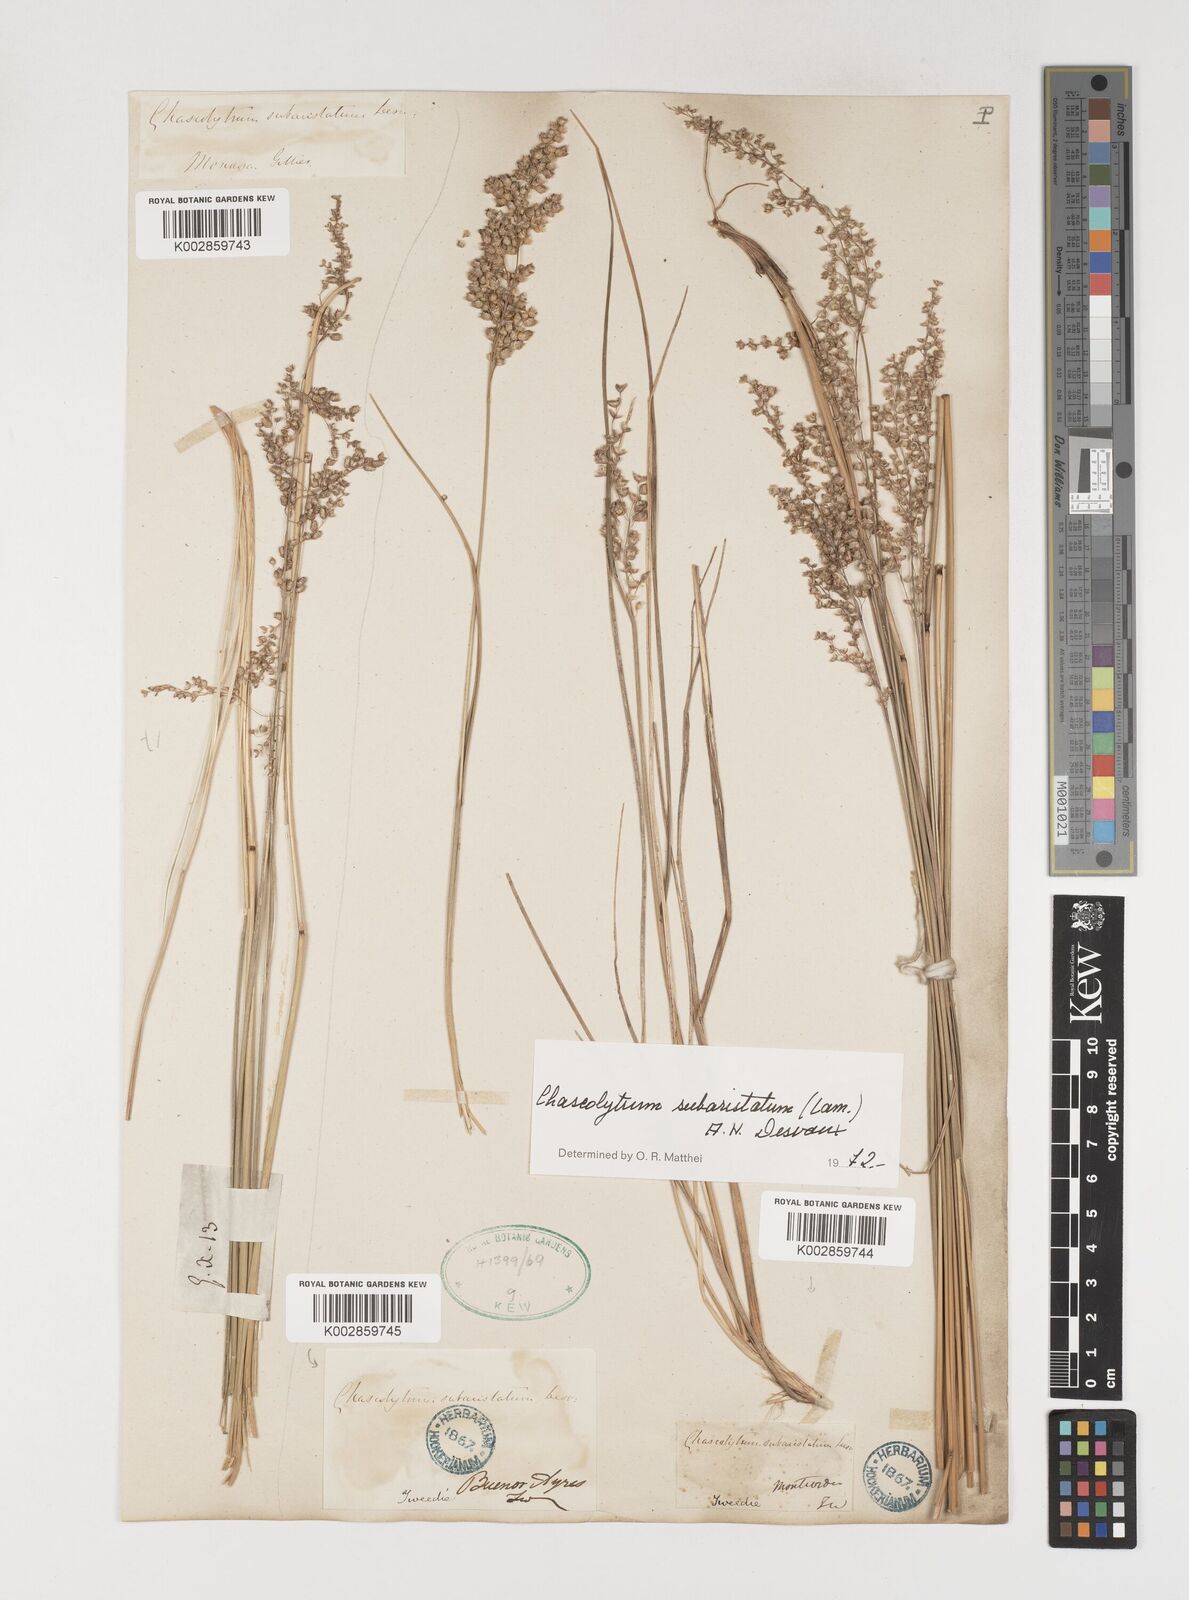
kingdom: Plantae
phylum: Tracheophyta
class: Liliopsida
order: Poales
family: Poaceae
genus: Chascolytrum
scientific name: Chascolytrum subaristatum
